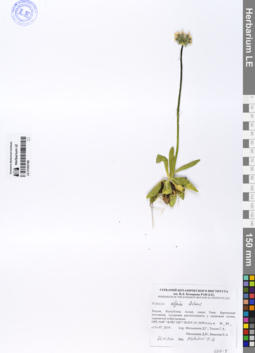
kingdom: Plantae
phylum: Tracheophyta
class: Magnoliopsida
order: Ericales
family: Primulaceae
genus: Primula
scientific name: Primula algida
